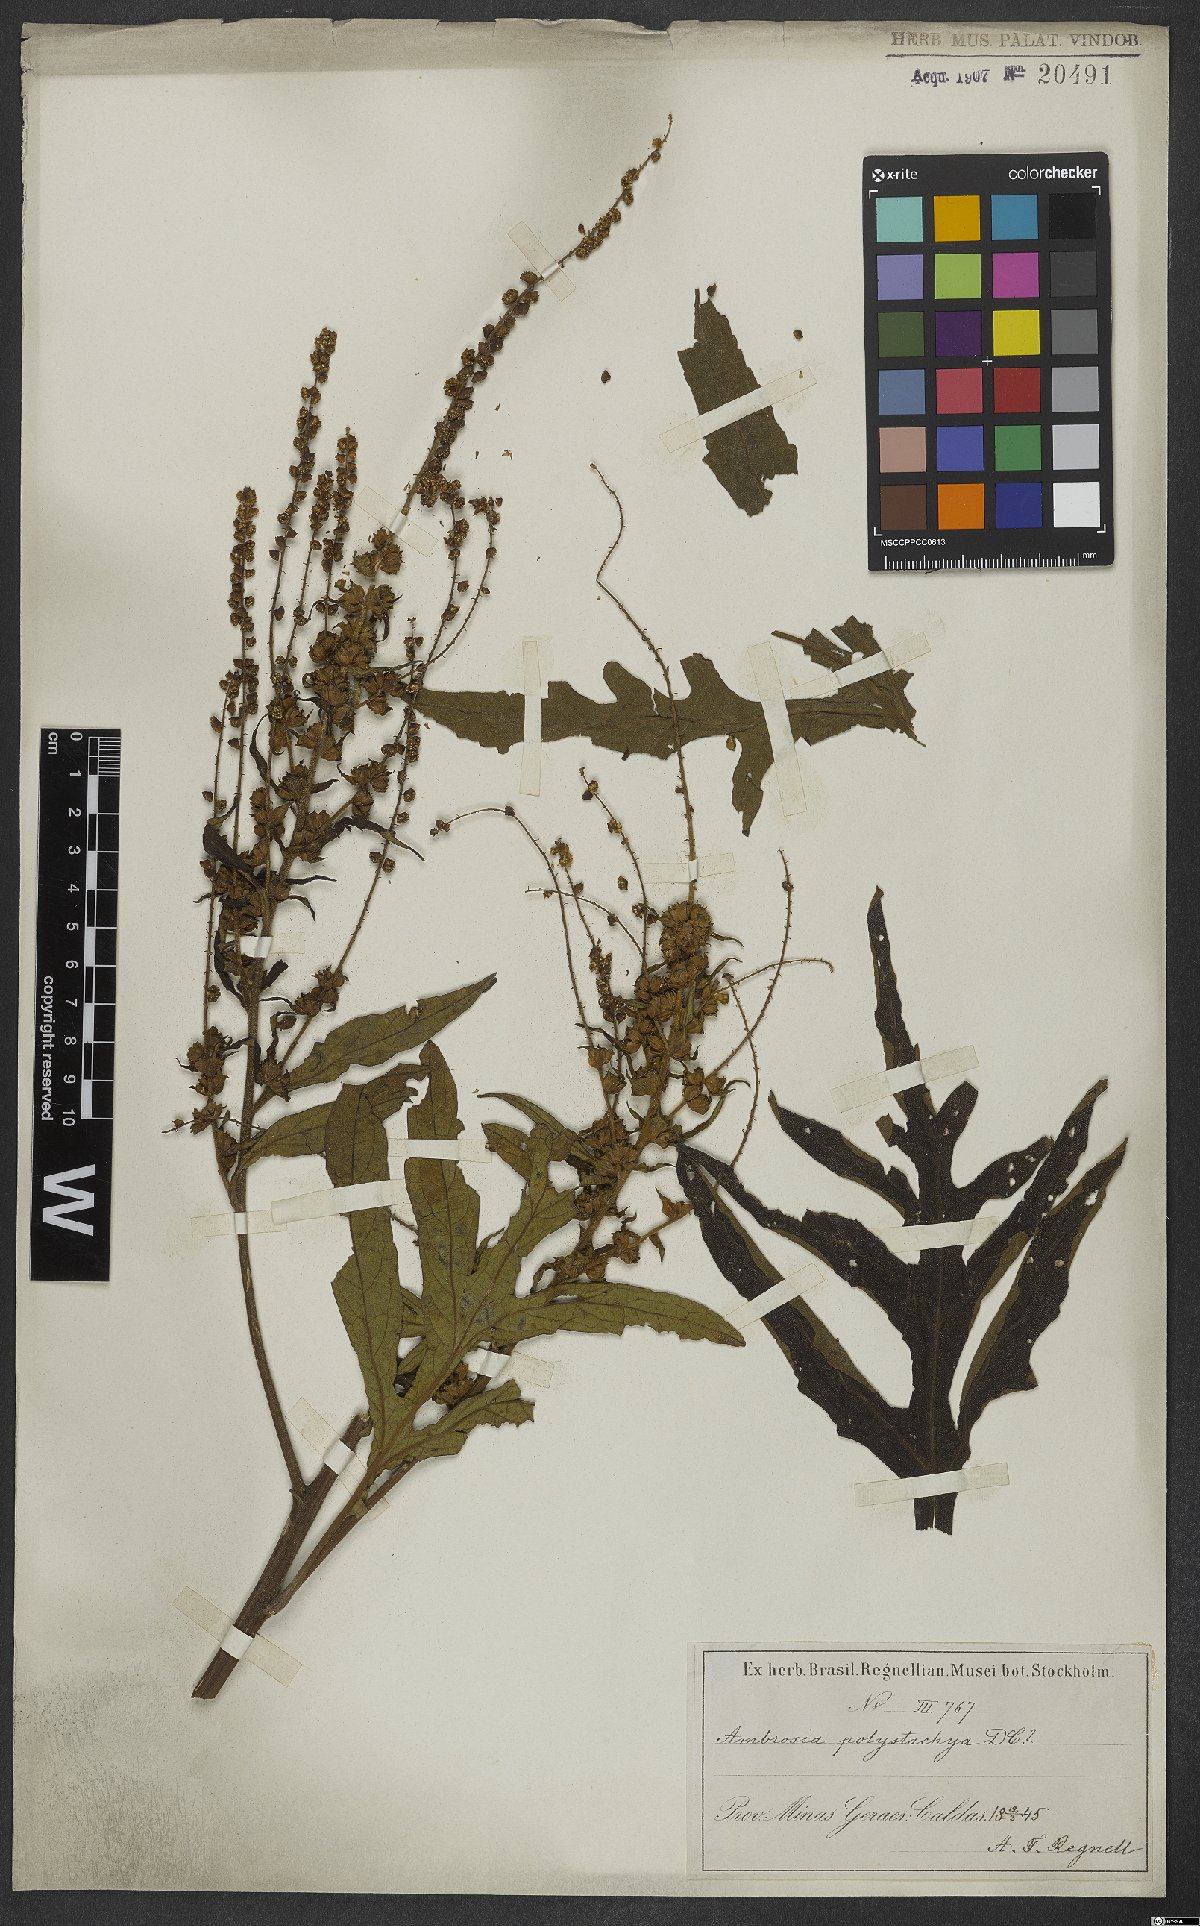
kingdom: Plantae
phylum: Tracheophyta
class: Magnoliopsida
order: Asterales
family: Asteraceae
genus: Ambrosia
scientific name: Ambrosia polystachya
